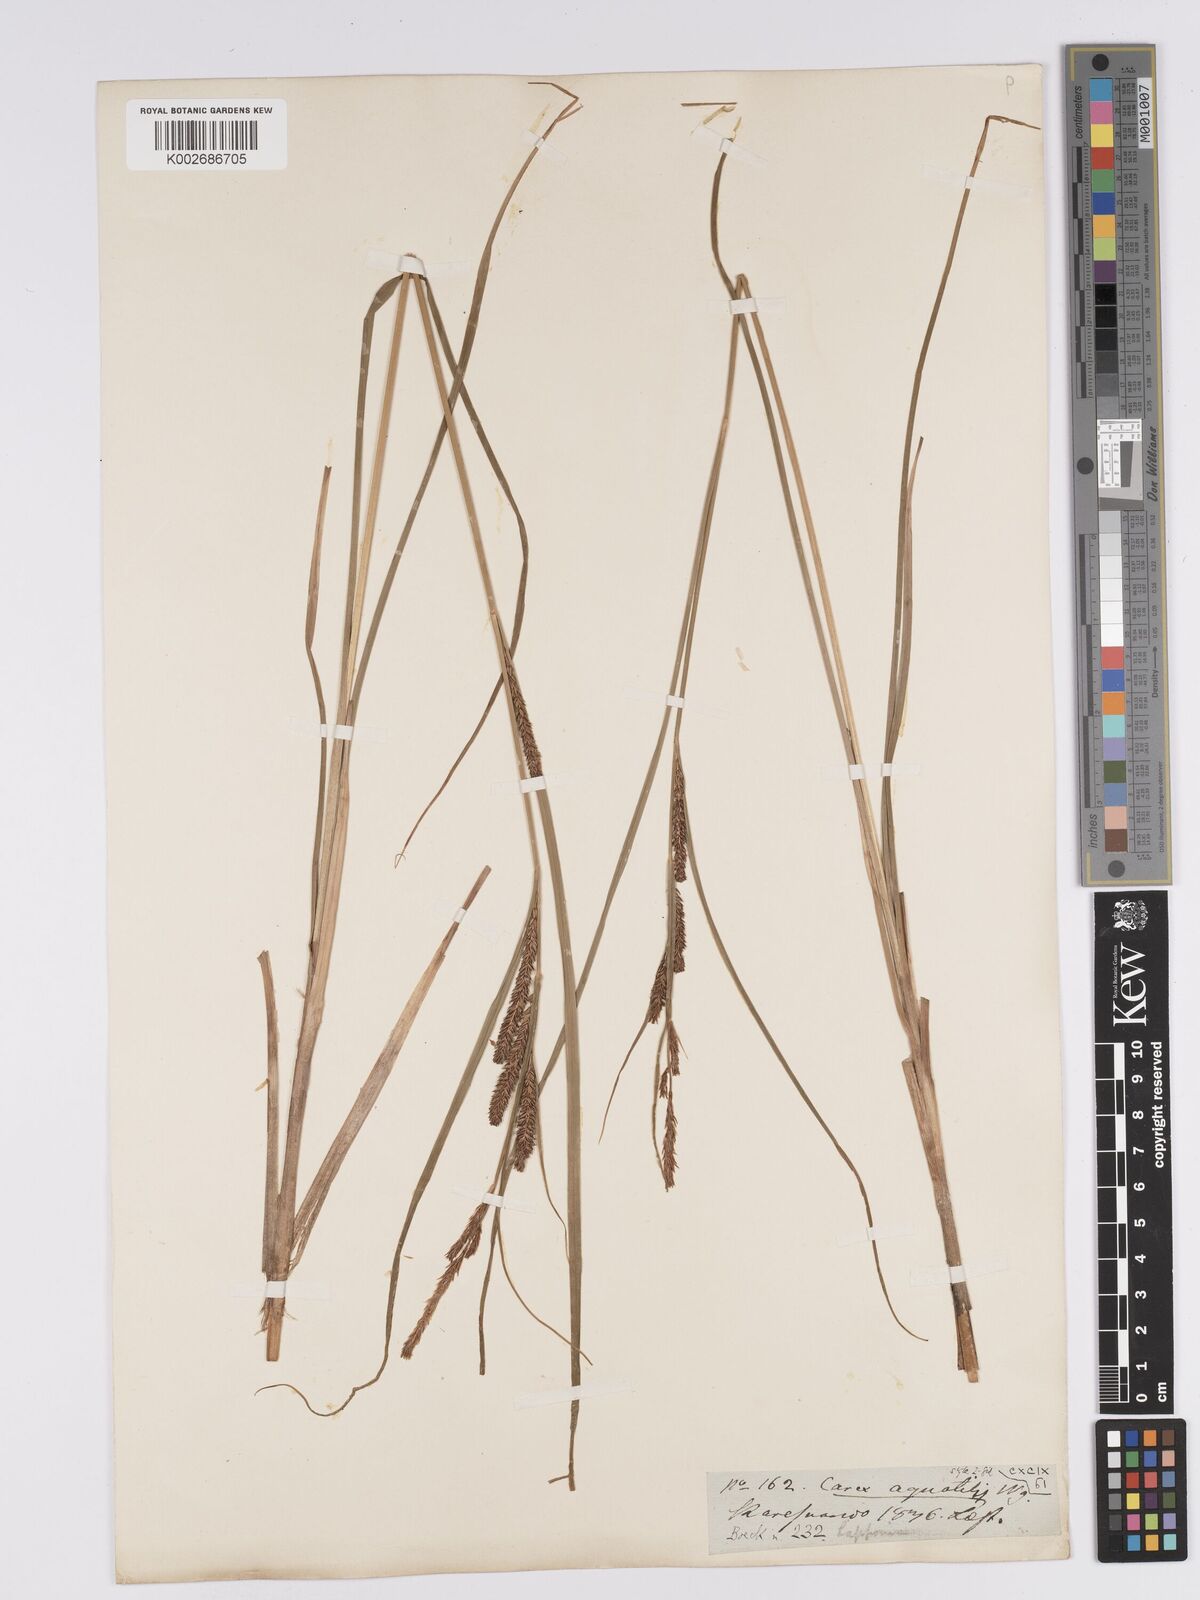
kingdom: Plantae
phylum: Tracheophyta
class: Liliopsida
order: Poales
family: Cyperaceae
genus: Carex
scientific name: Carex aquatilis
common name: Water sedge
